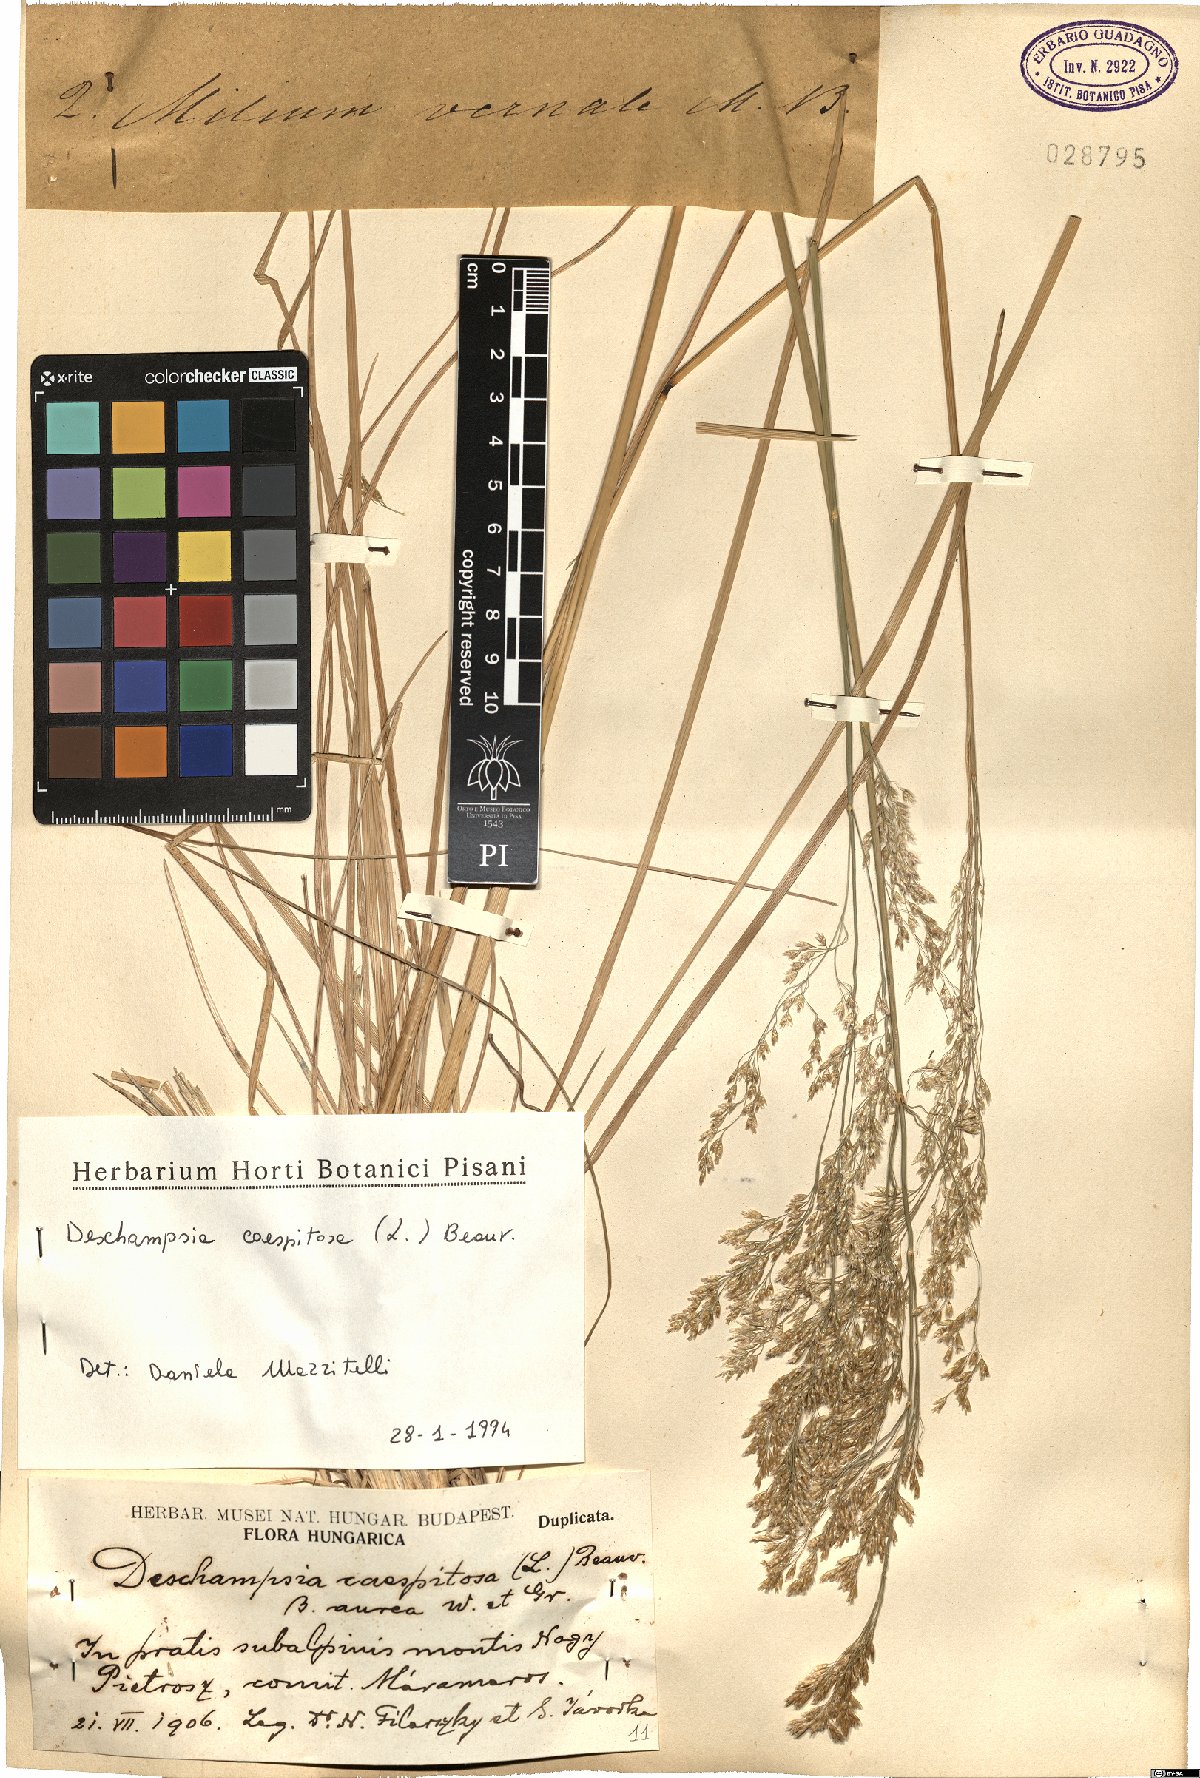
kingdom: Plantae
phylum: Tracheophyta
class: Liliopsida
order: Poales
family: Poaceae
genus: Deschampsia
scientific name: Deschampsia cespitosa
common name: Tufted hair-grass
